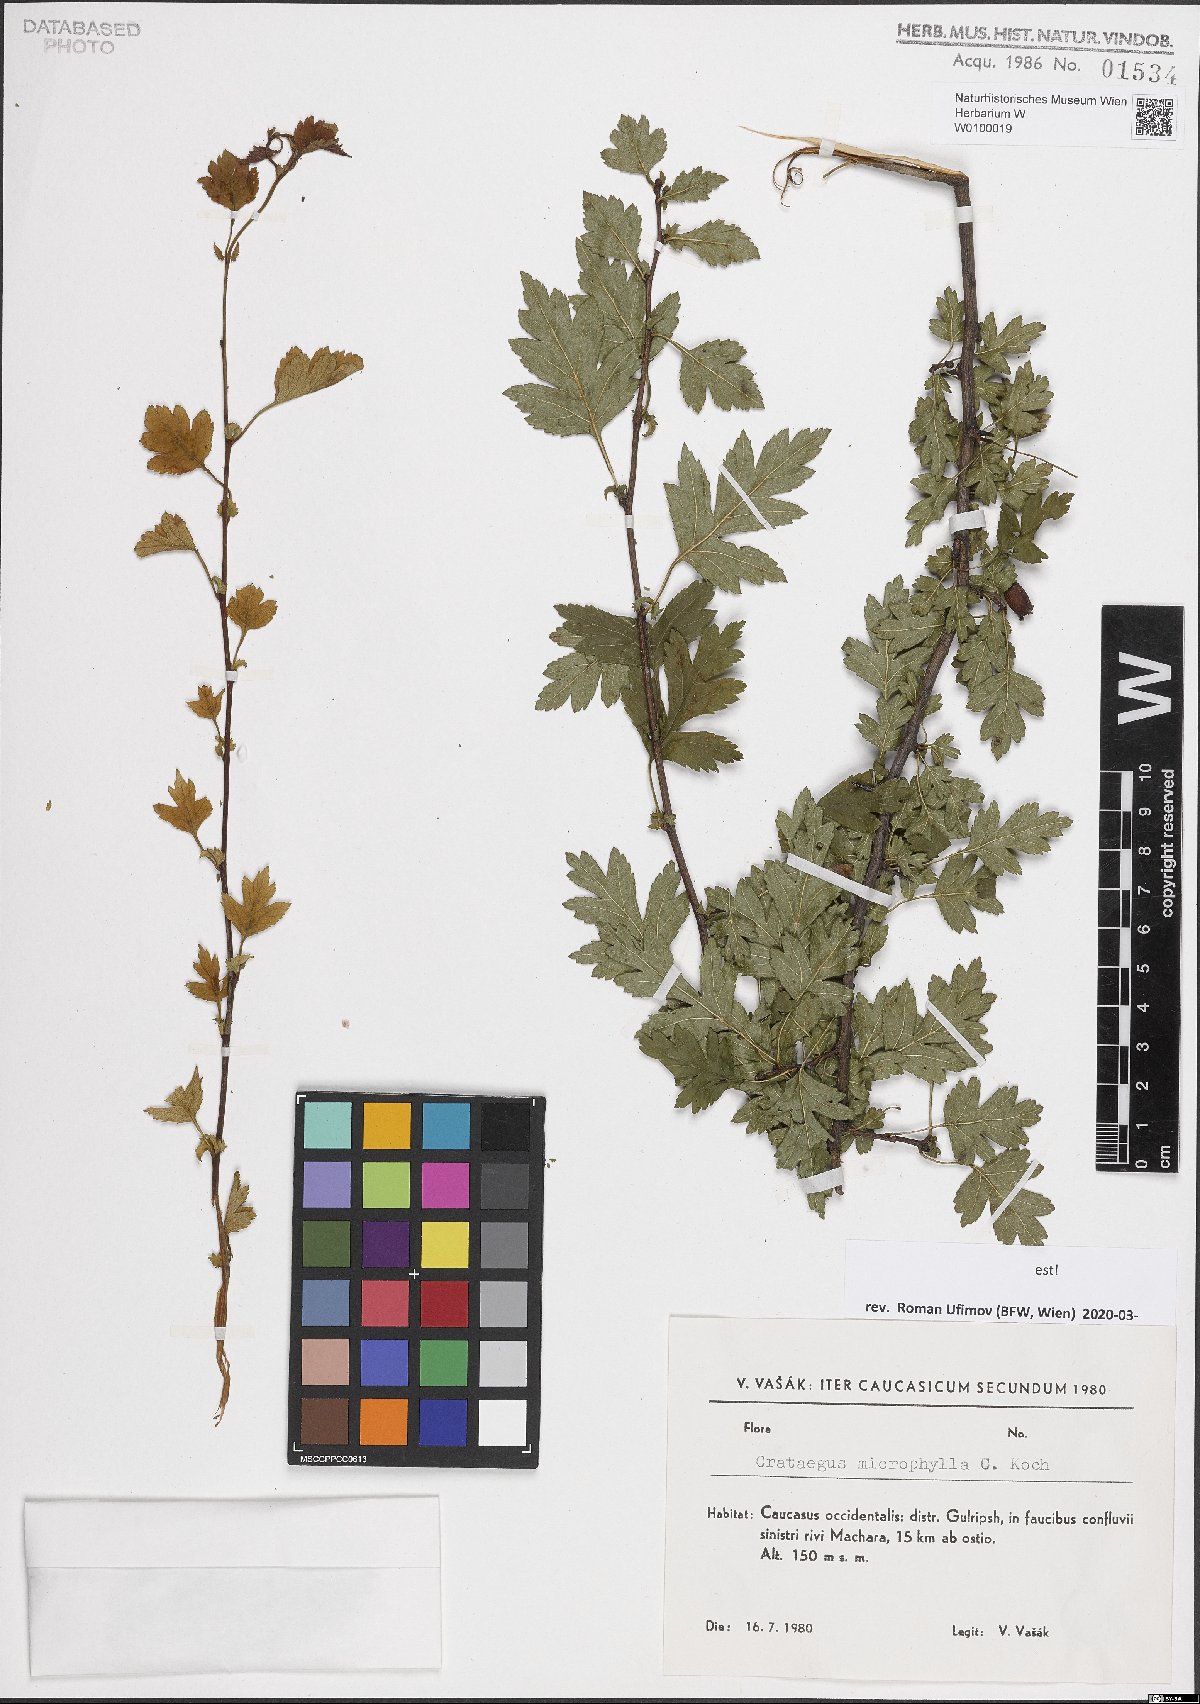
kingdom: Plantae
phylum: Tracheophyta
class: Magnoliopsida
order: Rosales
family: Rosaceae
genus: Crataegus
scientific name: Crataegus microphylla
